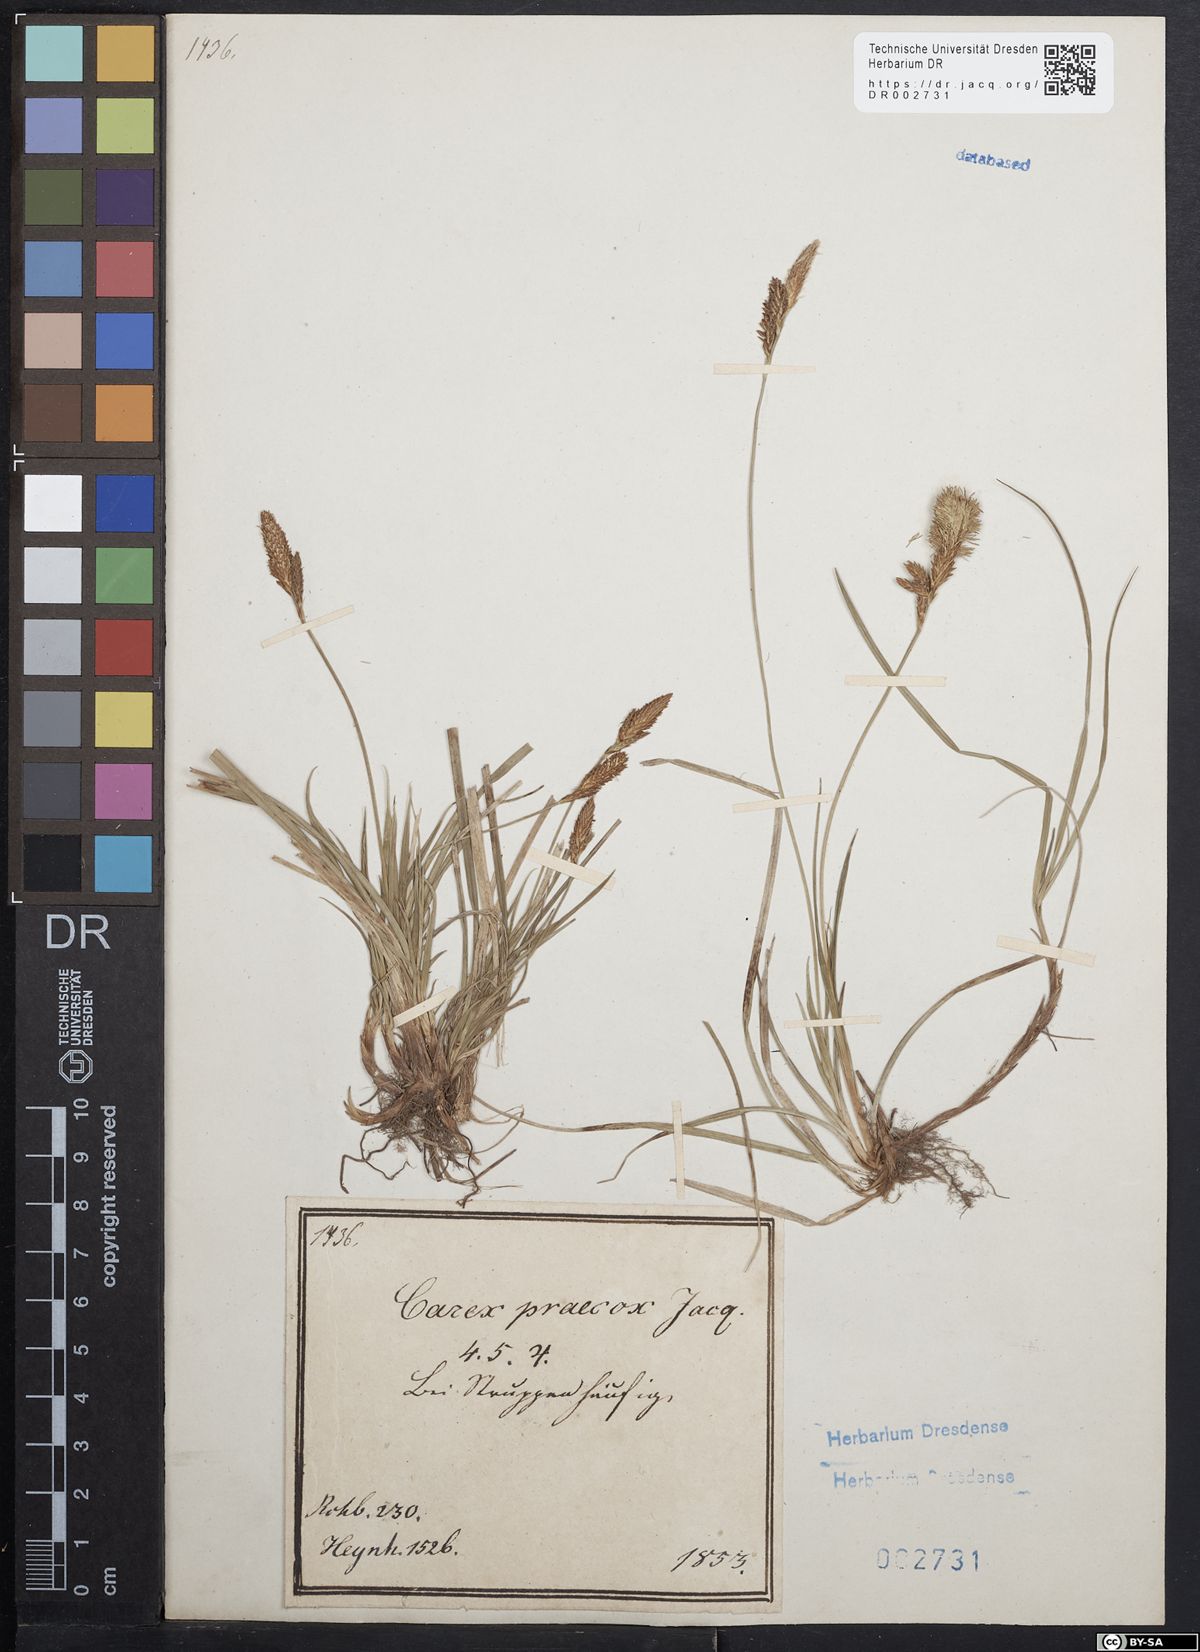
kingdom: Plantae
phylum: Tracheophyta
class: Liliopsida
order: Poales
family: Cyperaceae
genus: Carex
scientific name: Carex caryophyllea
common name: Spring sedge
